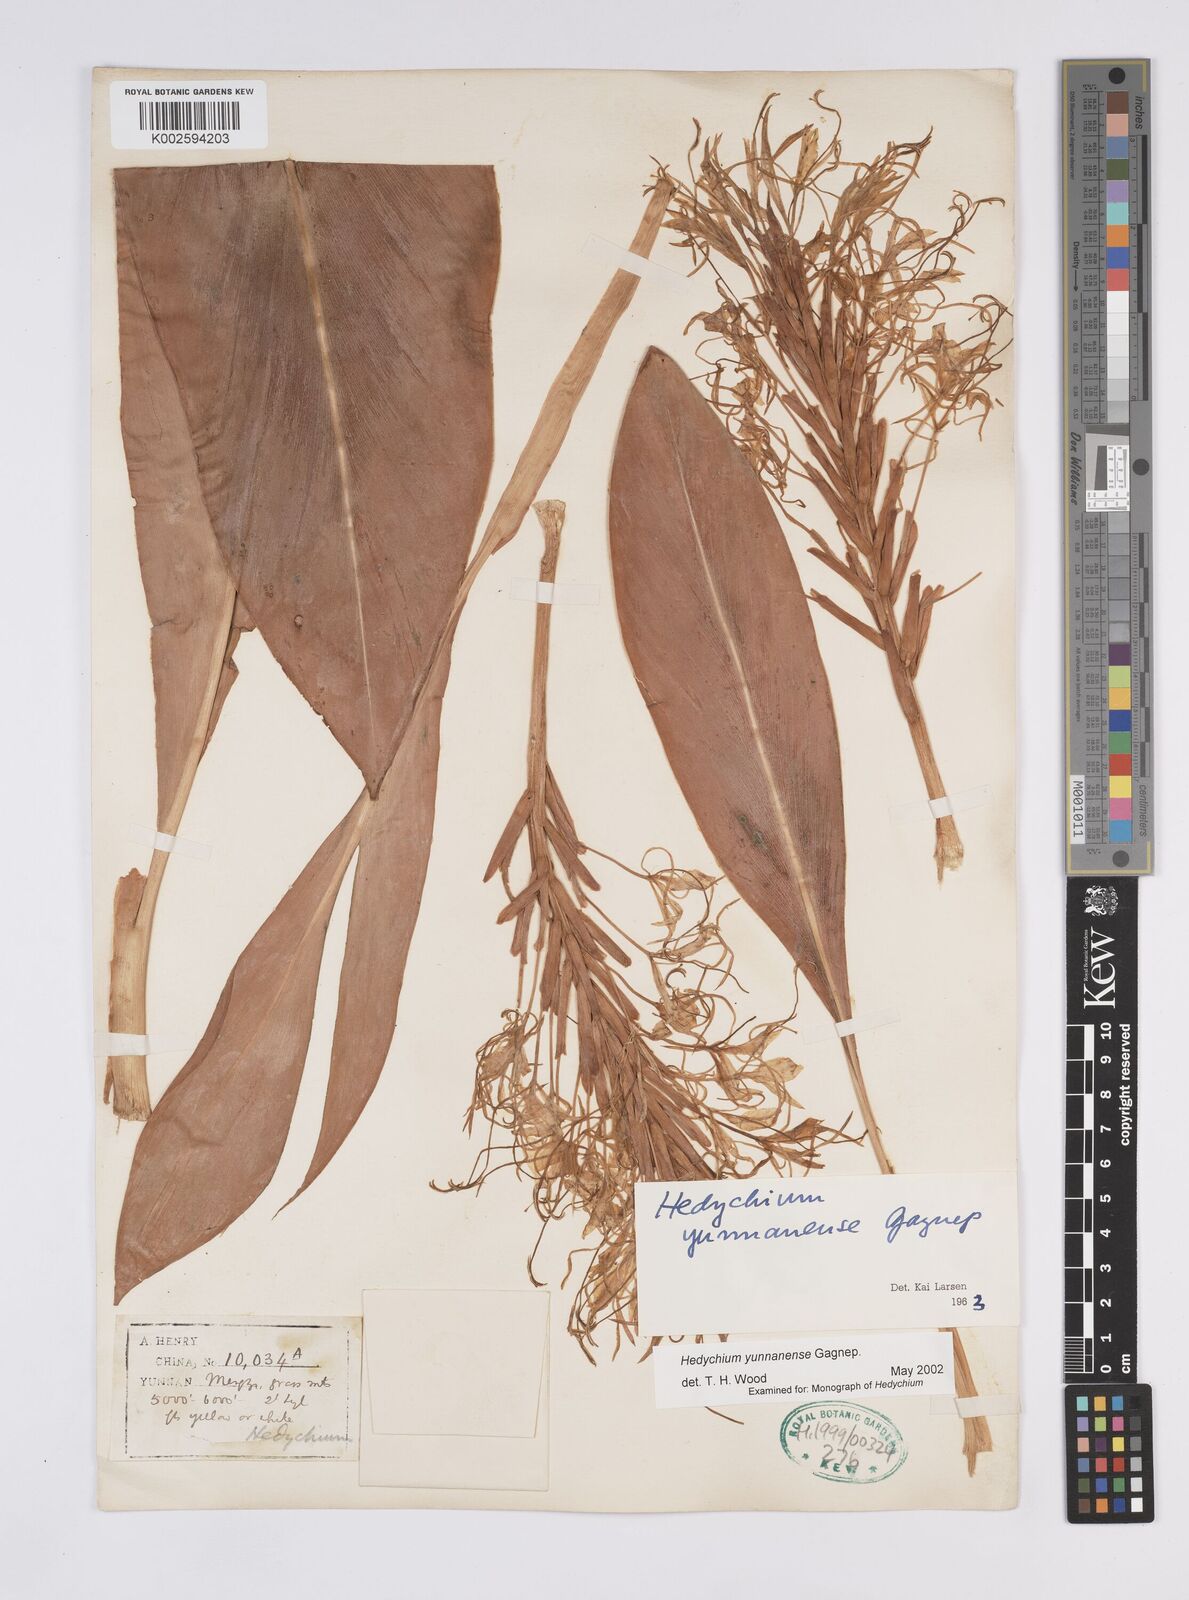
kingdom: Plantae
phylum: Tracheophyta
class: Liliopsida
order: Zingiberales
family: Zingiberaceae
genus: Hedychium
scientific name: Hedychium yunnanense
